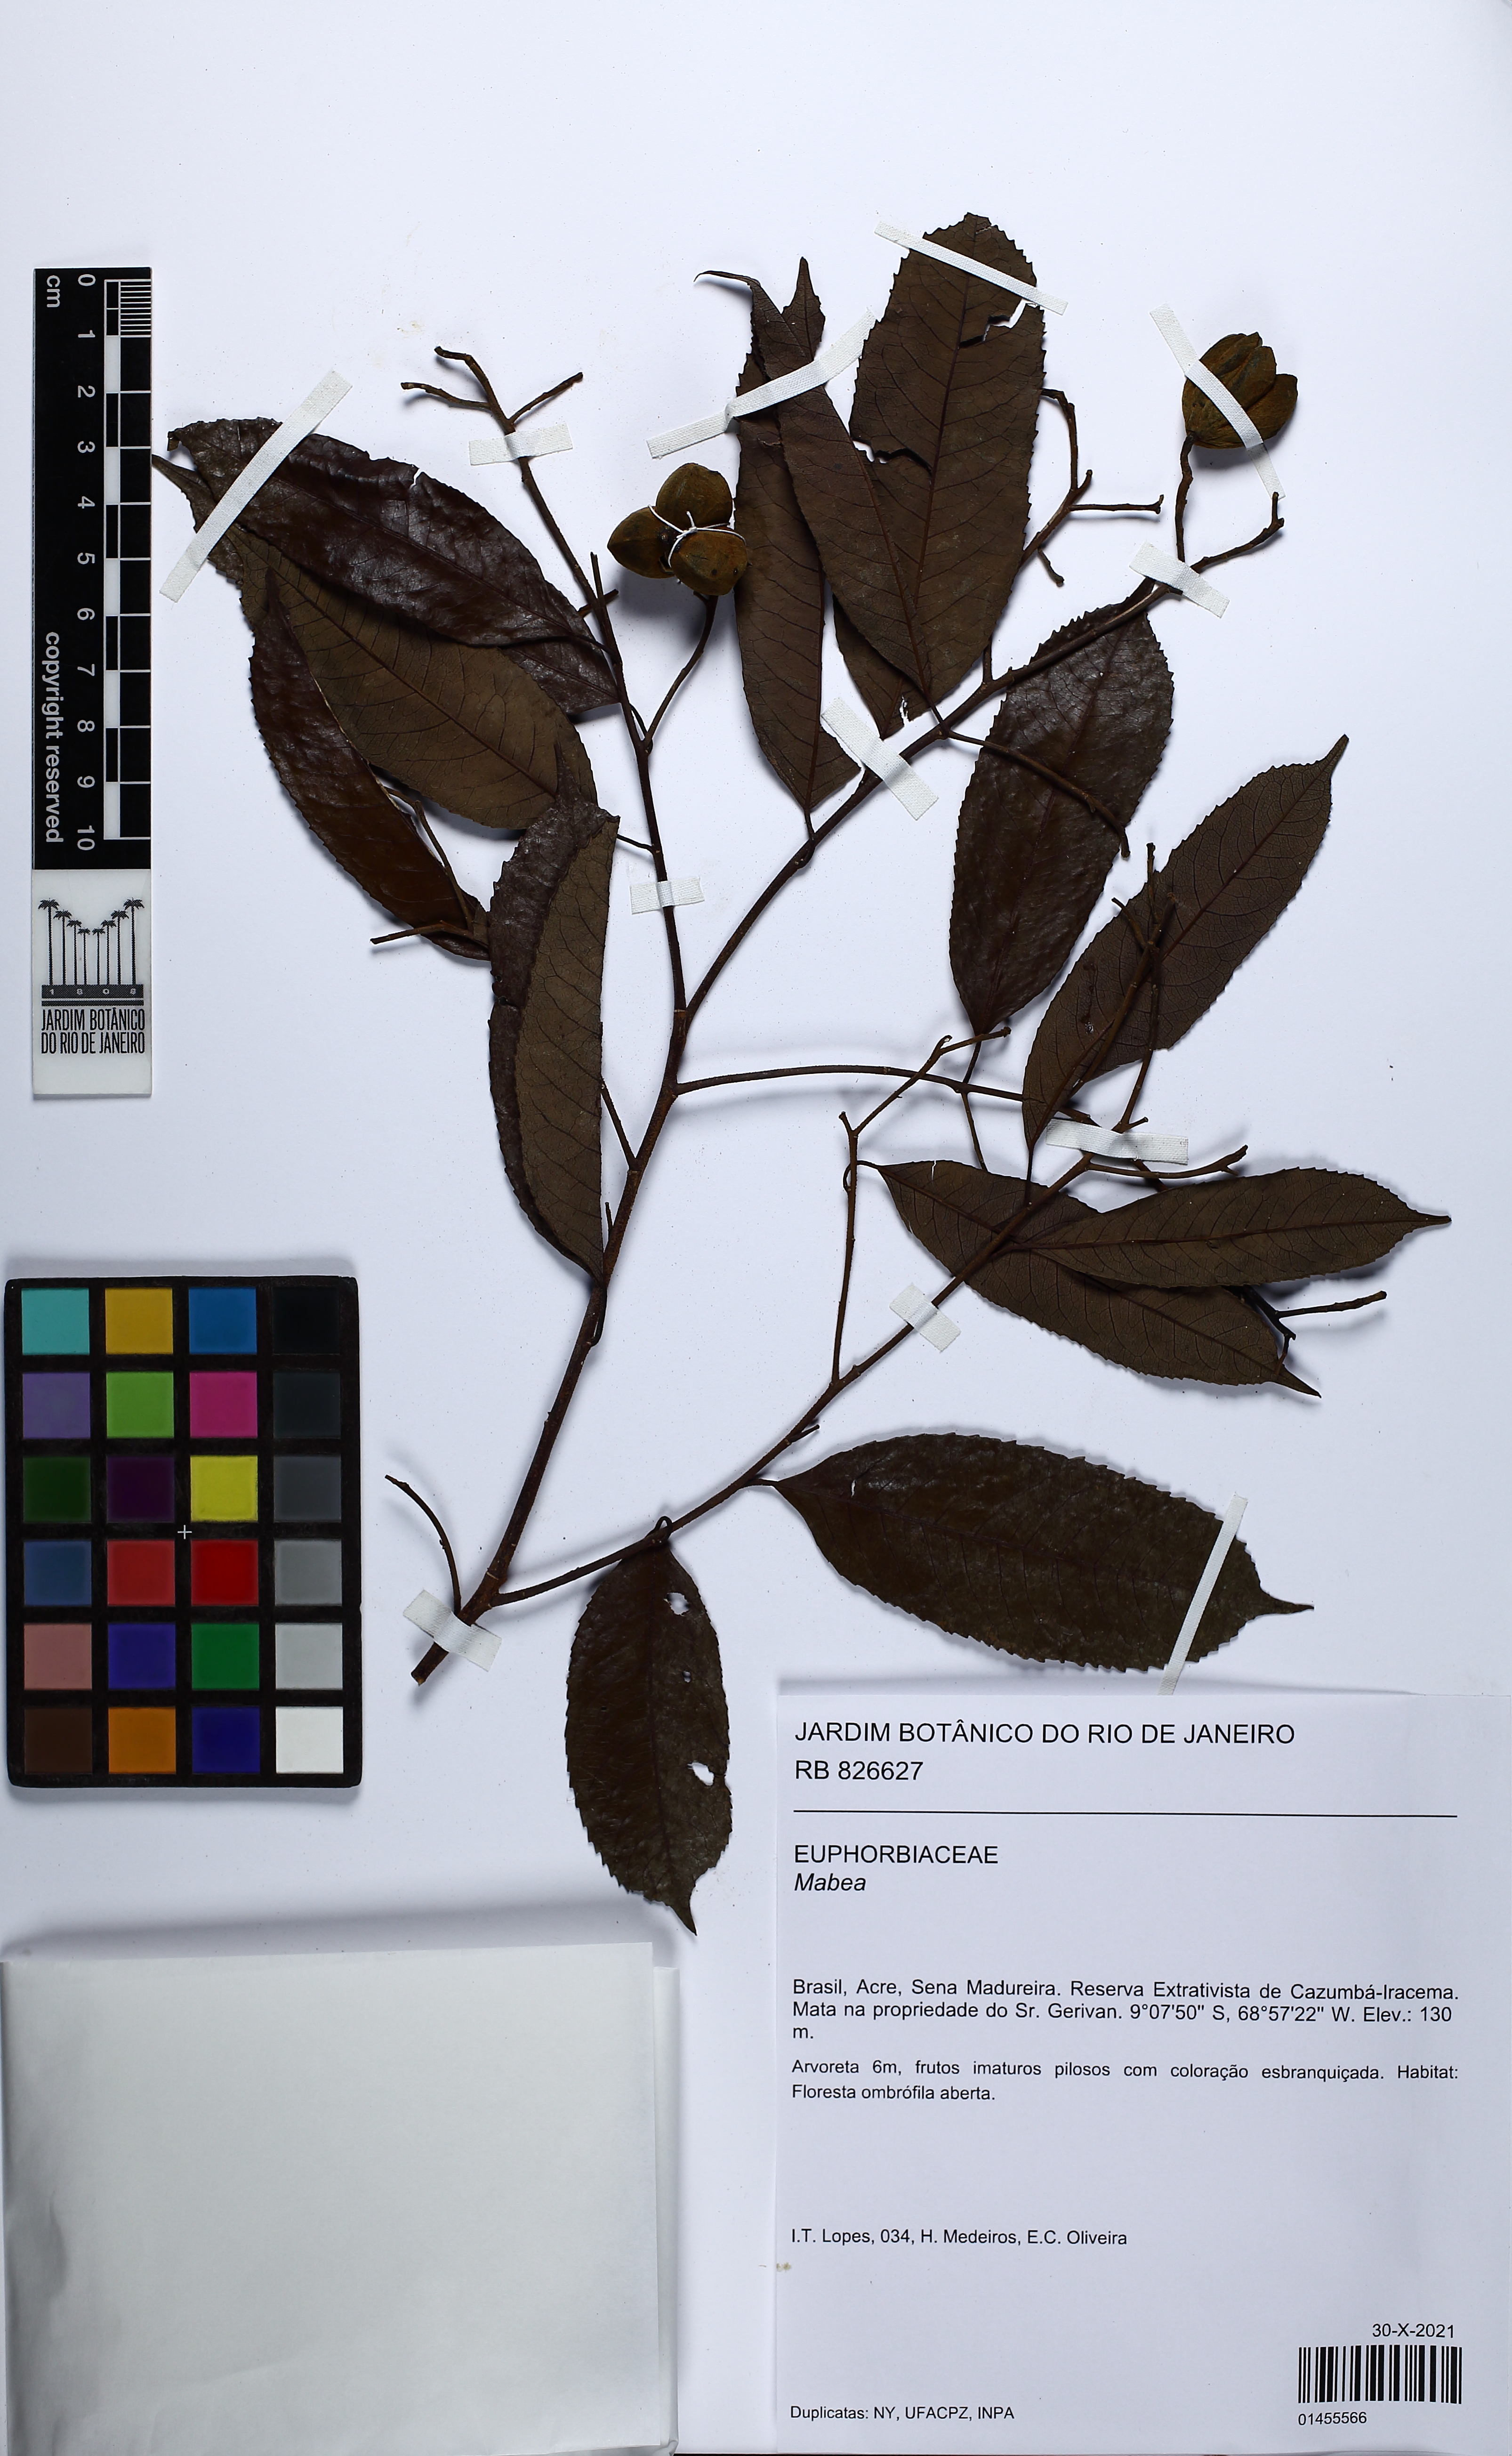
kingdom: Plantae
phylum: Tracheophyta
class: Magnoliopsida
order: Malpighiales
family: Euphorbiaceae
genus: Mabea
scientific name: Mabea
